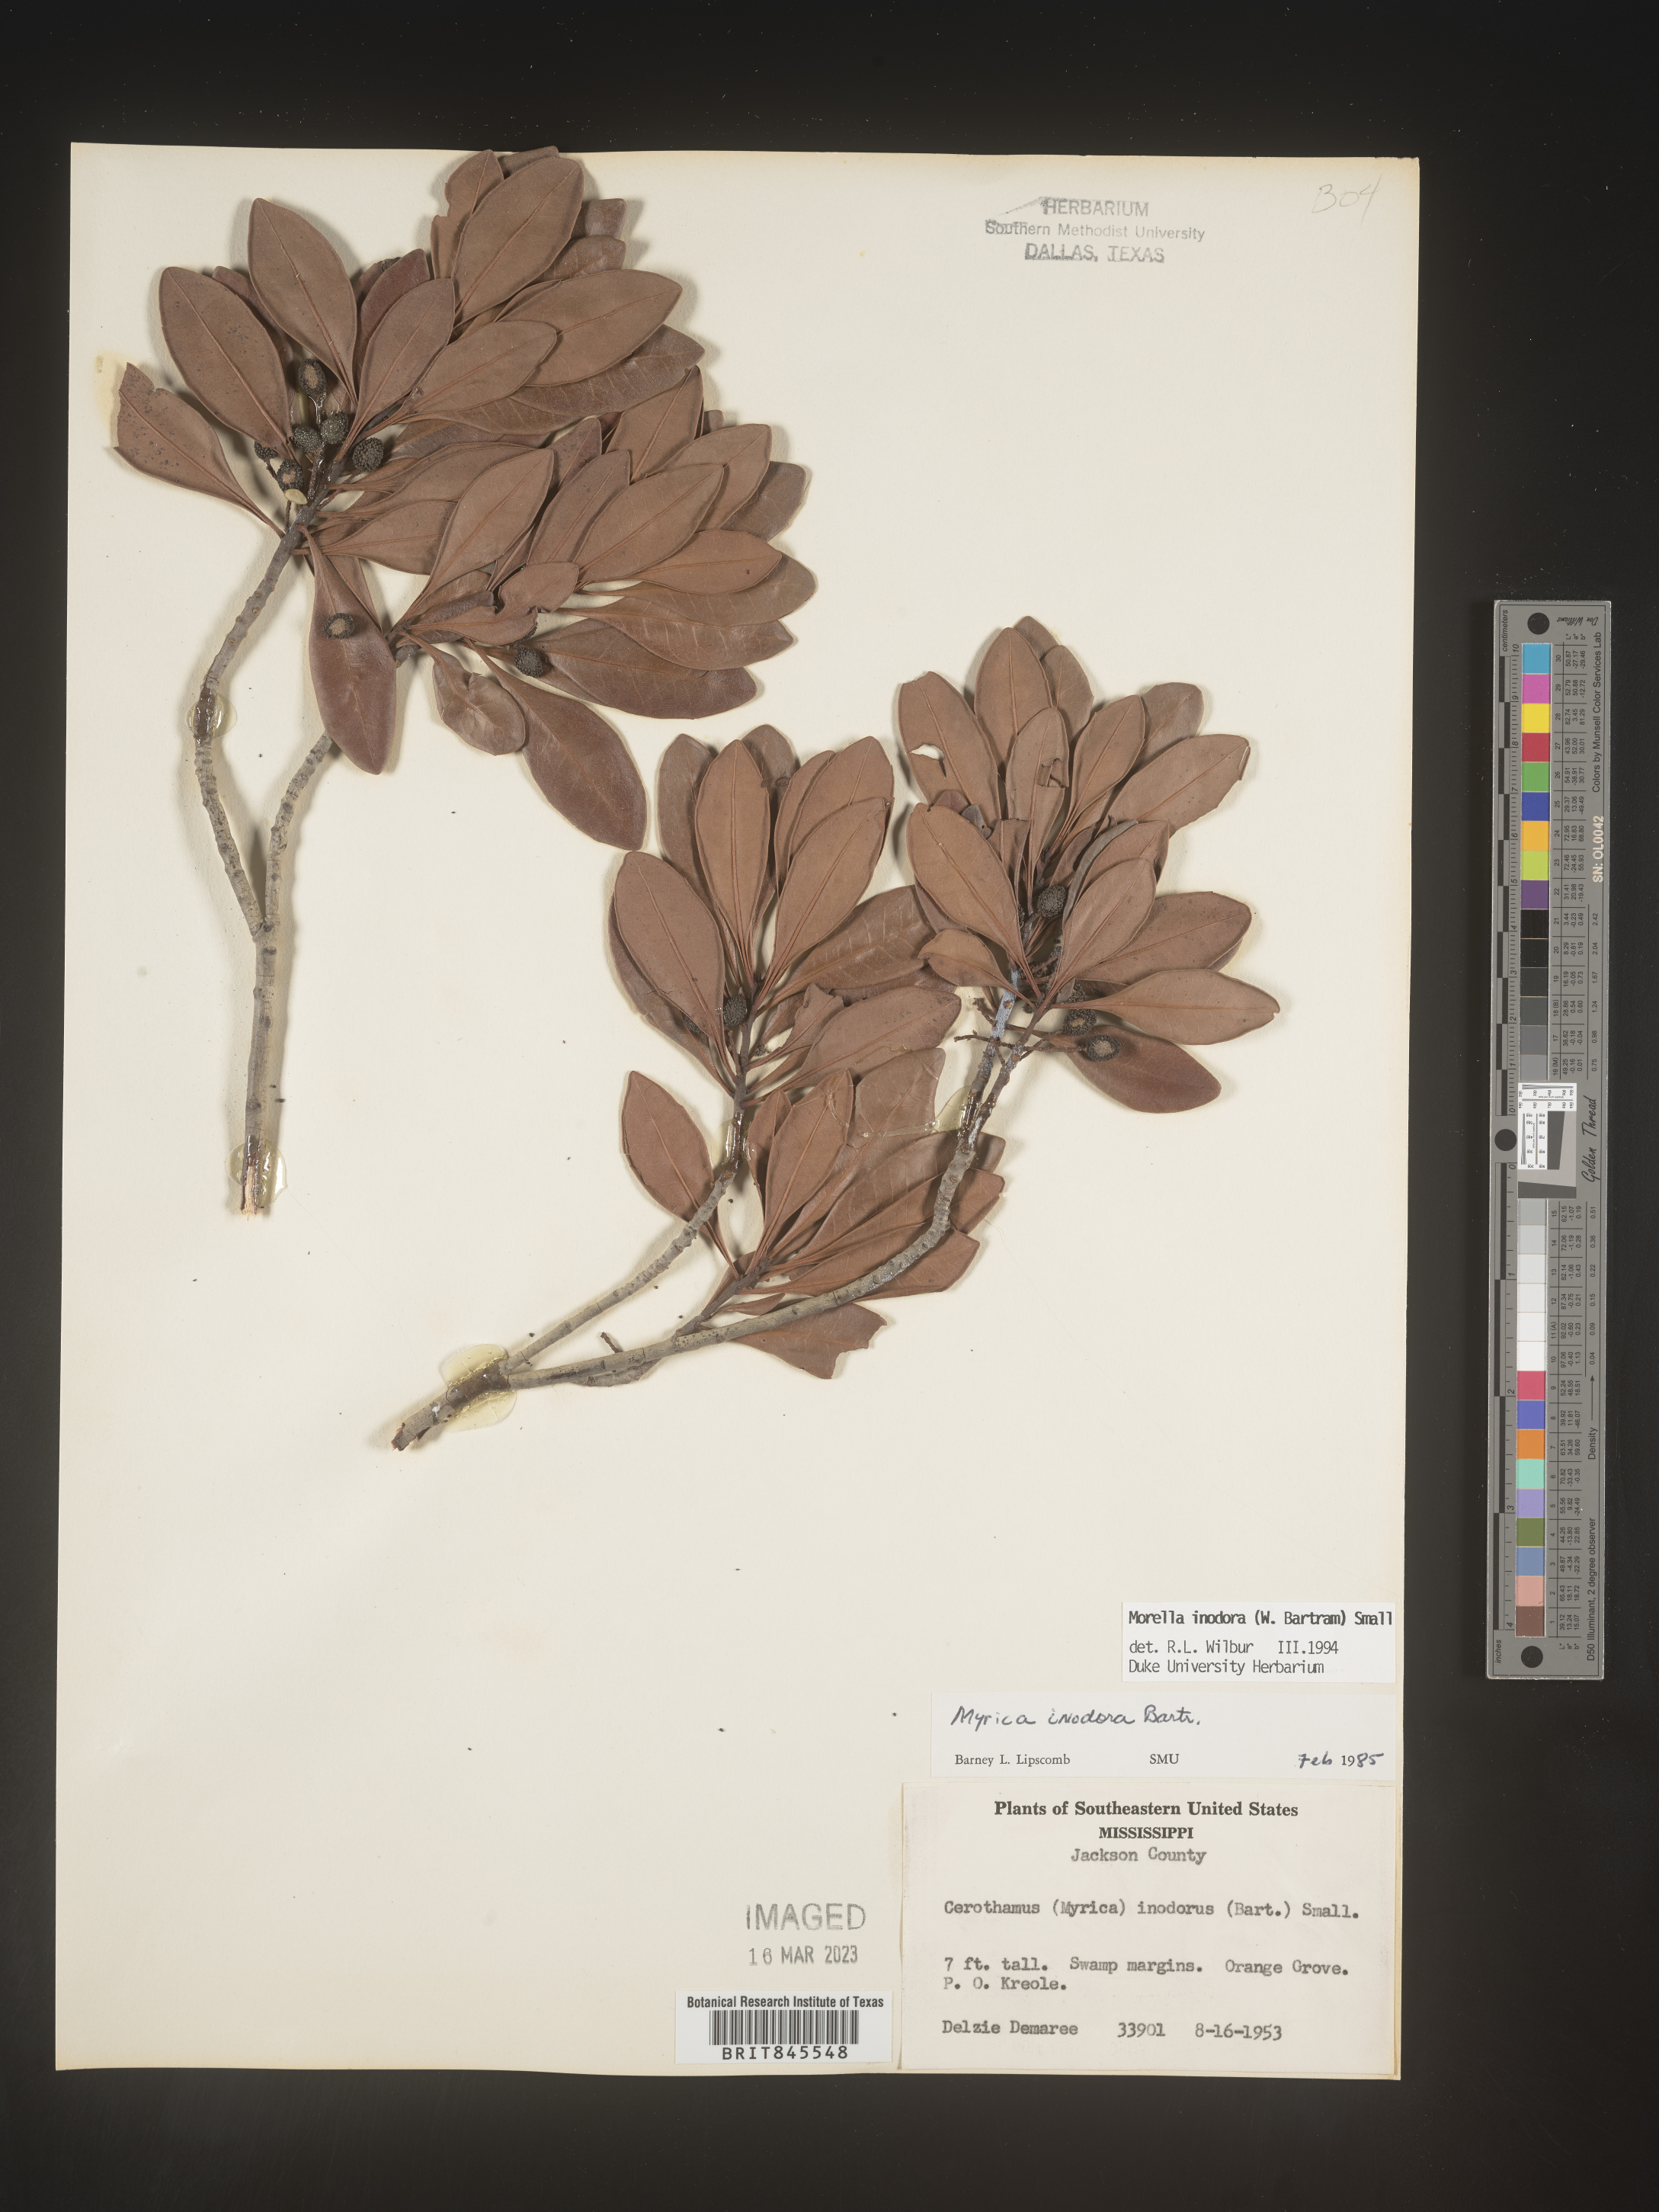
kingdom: Plantae
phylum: Tracheophyta
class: Magnoliopsida
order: Fagales
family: Myricaceae
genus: Myrica
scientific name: Myrica
